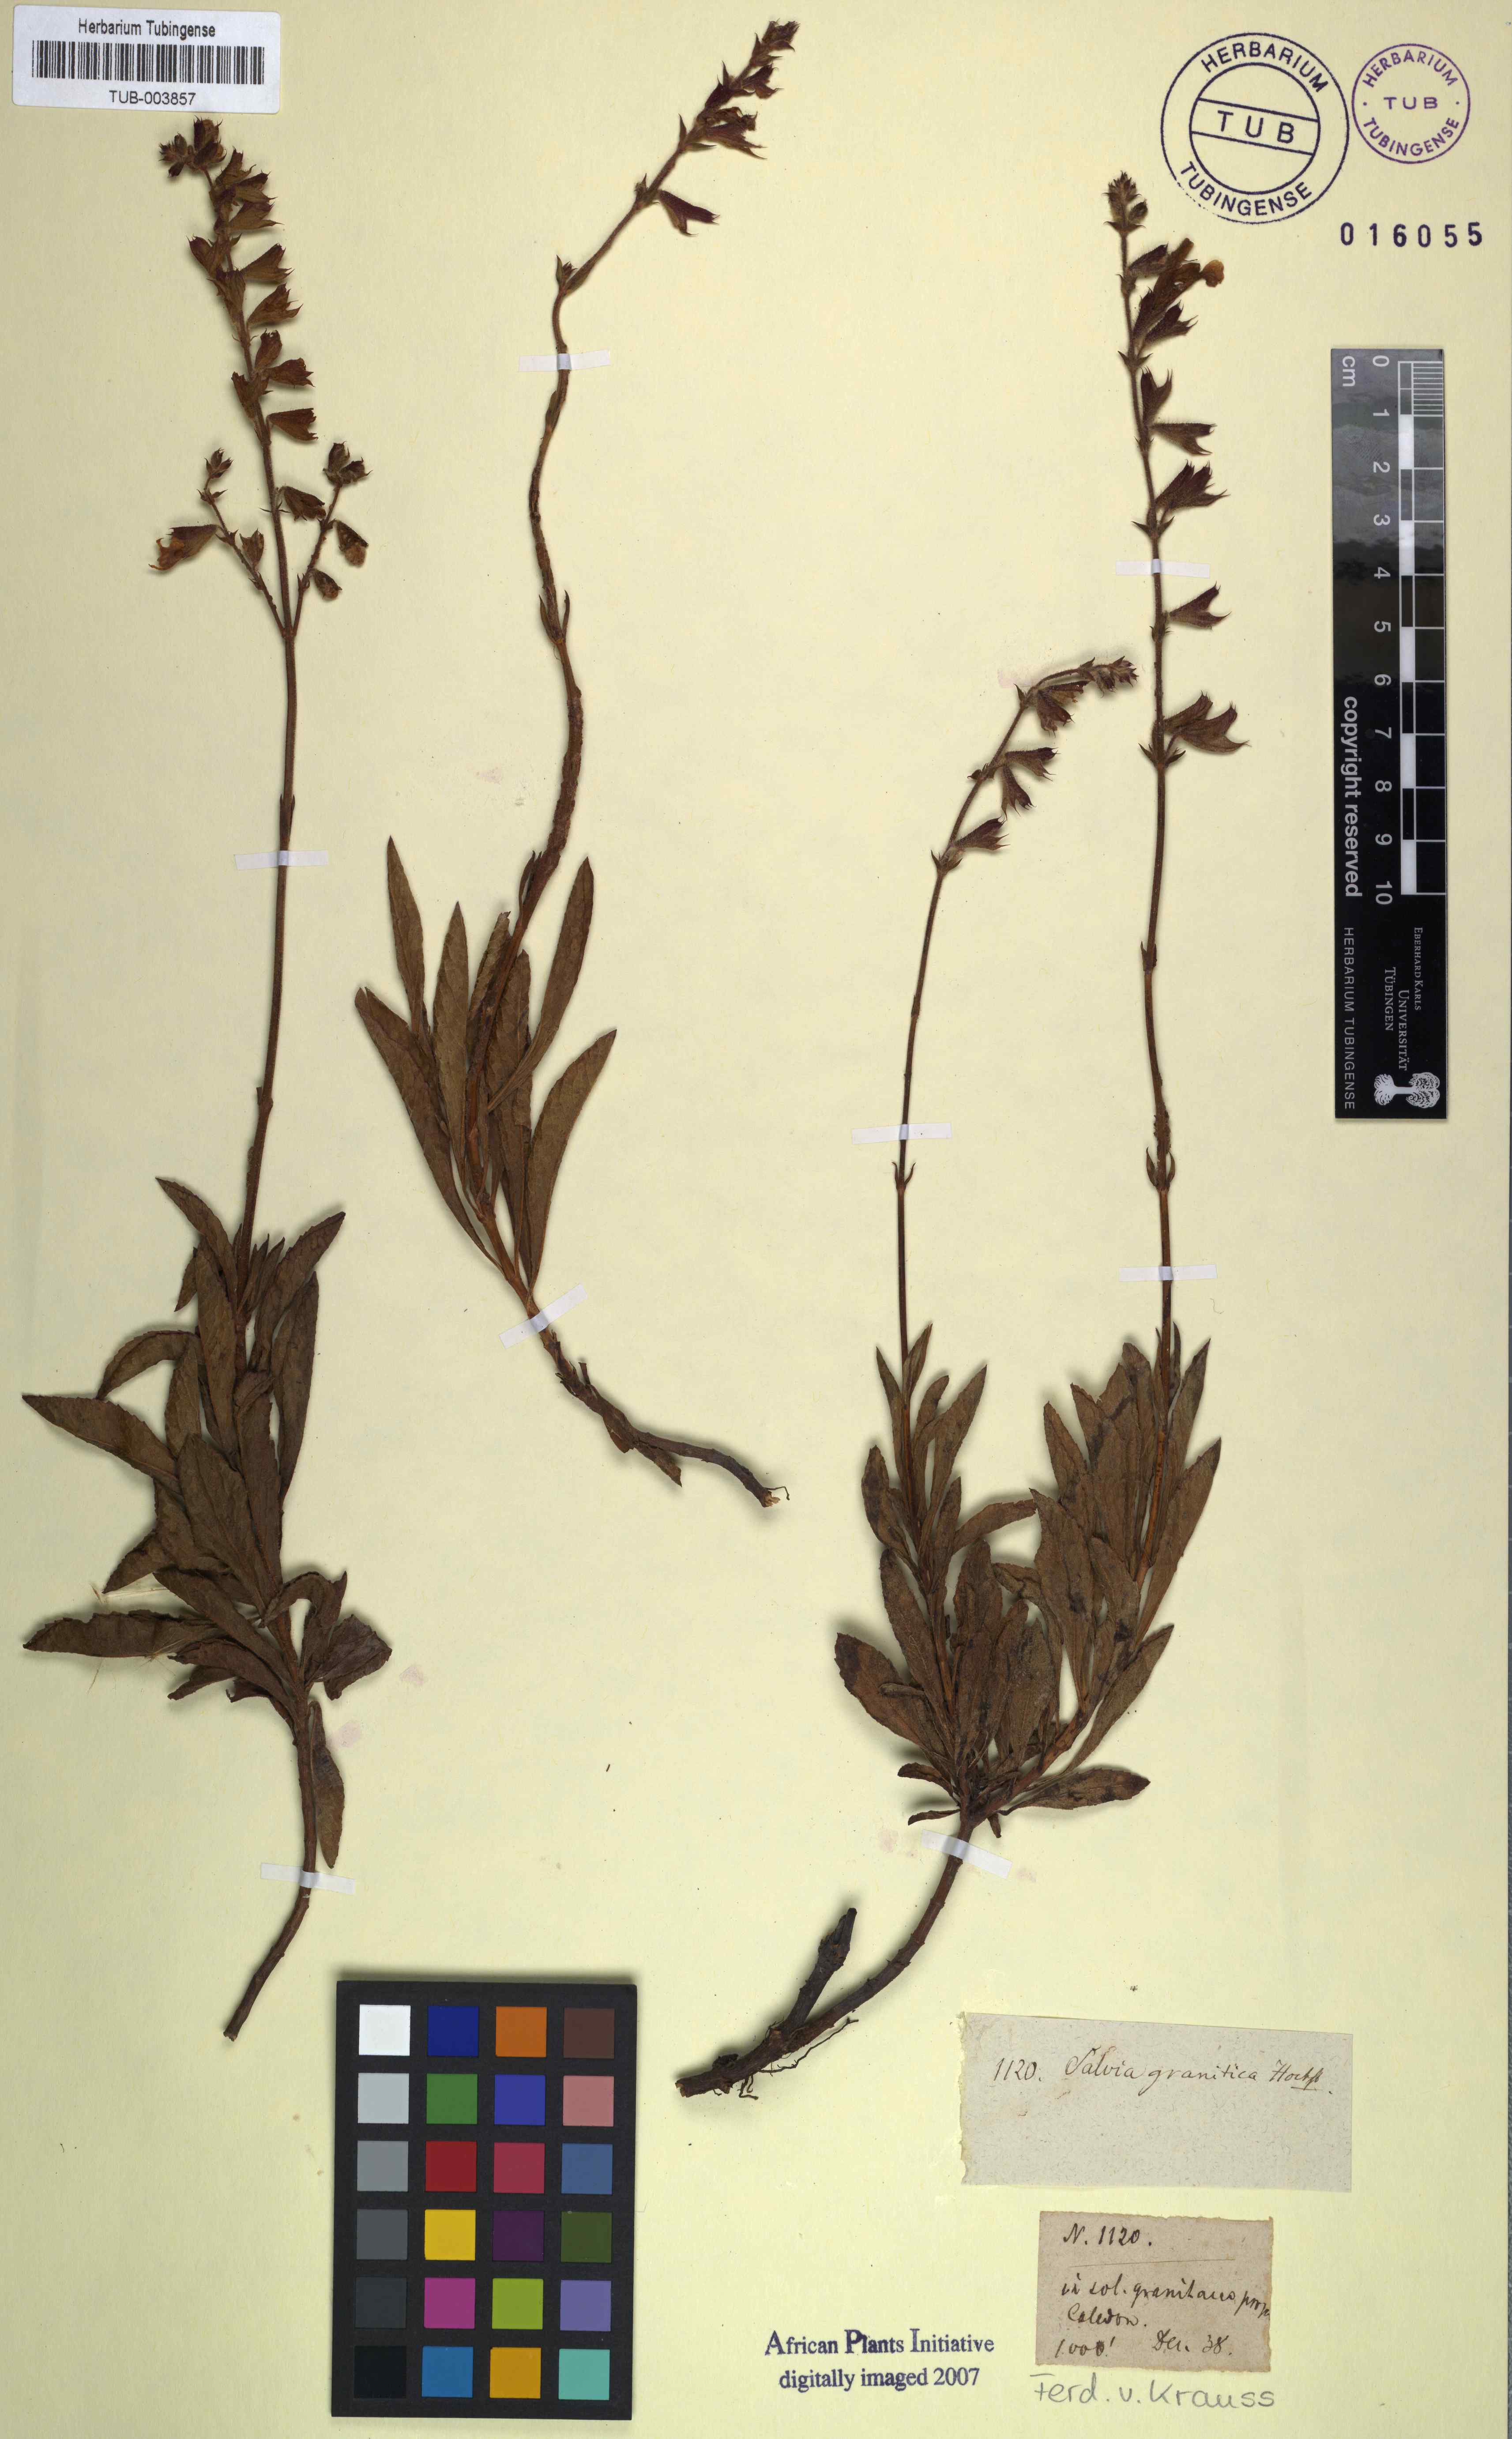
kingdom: Plantae
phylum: Tracheophyta
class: Magnoliopsida
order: Lamiales
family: Lamiaceae
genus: Salvia
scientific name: Salvia granitica
